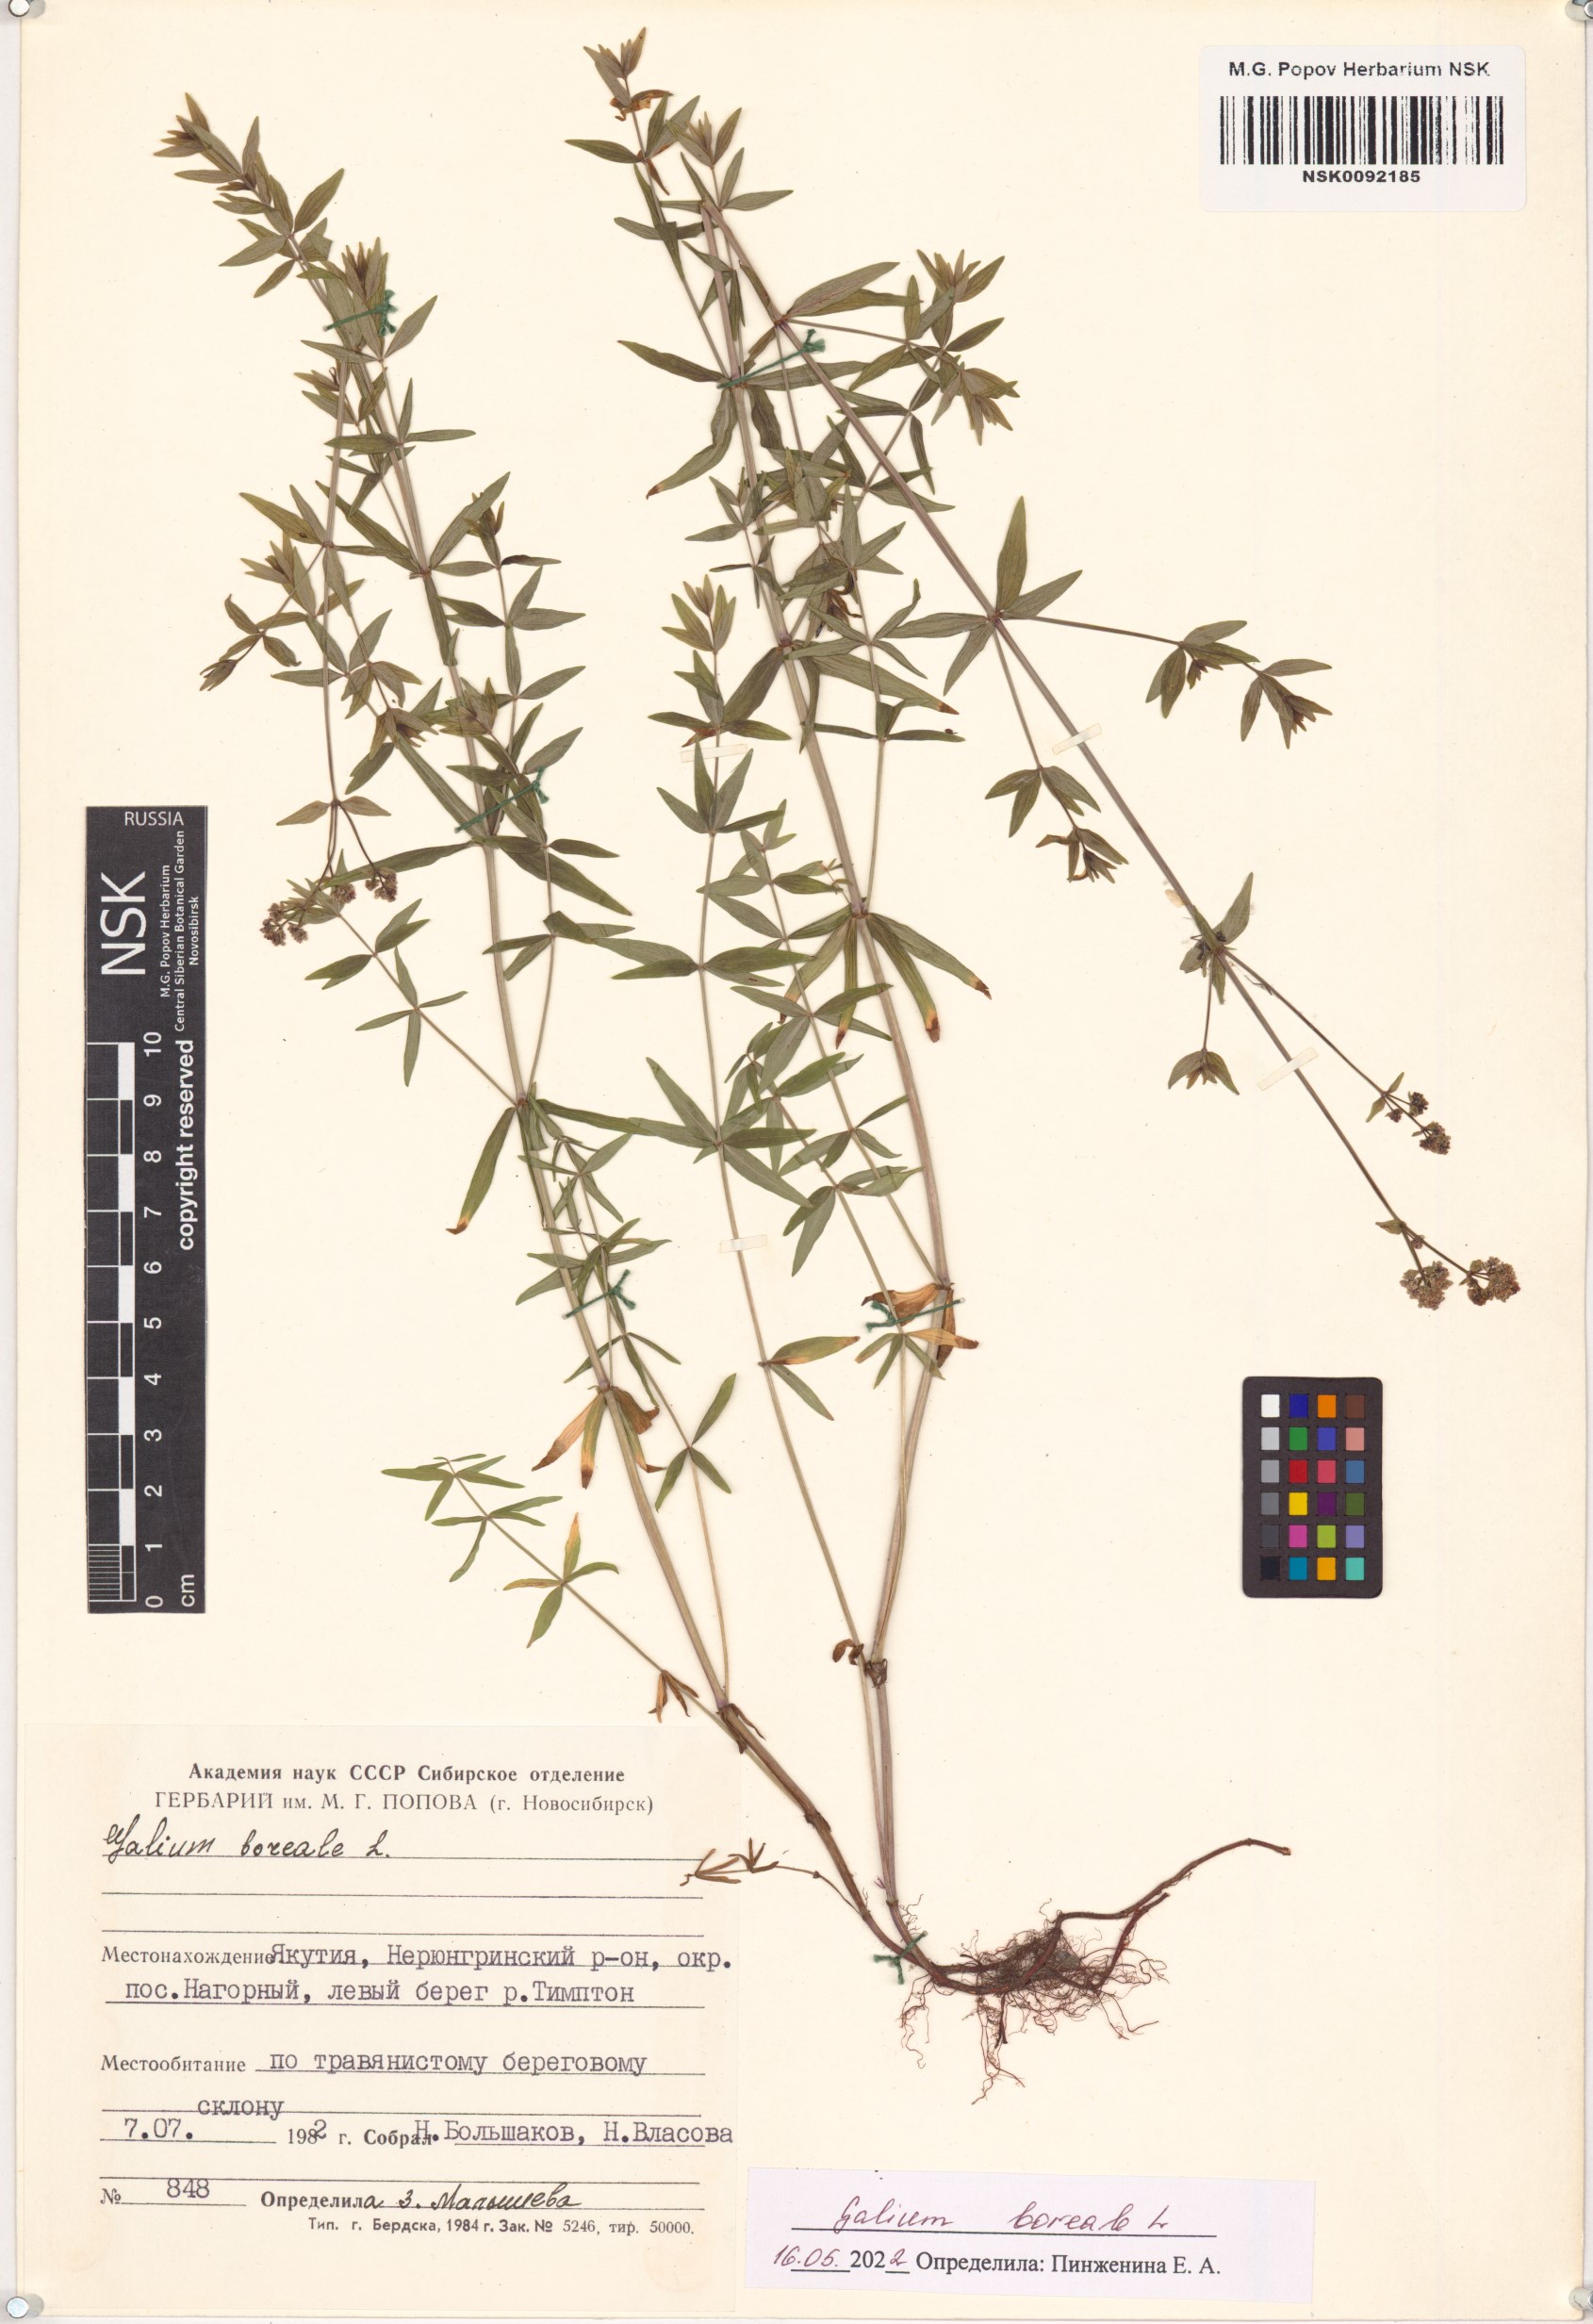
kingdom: Plantae
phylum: Tracheophyta
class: Magnoliopsida
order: Gentianales
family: Rubiaceae
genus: Galium
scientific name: Galium boreale
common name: Northern bedstraw
